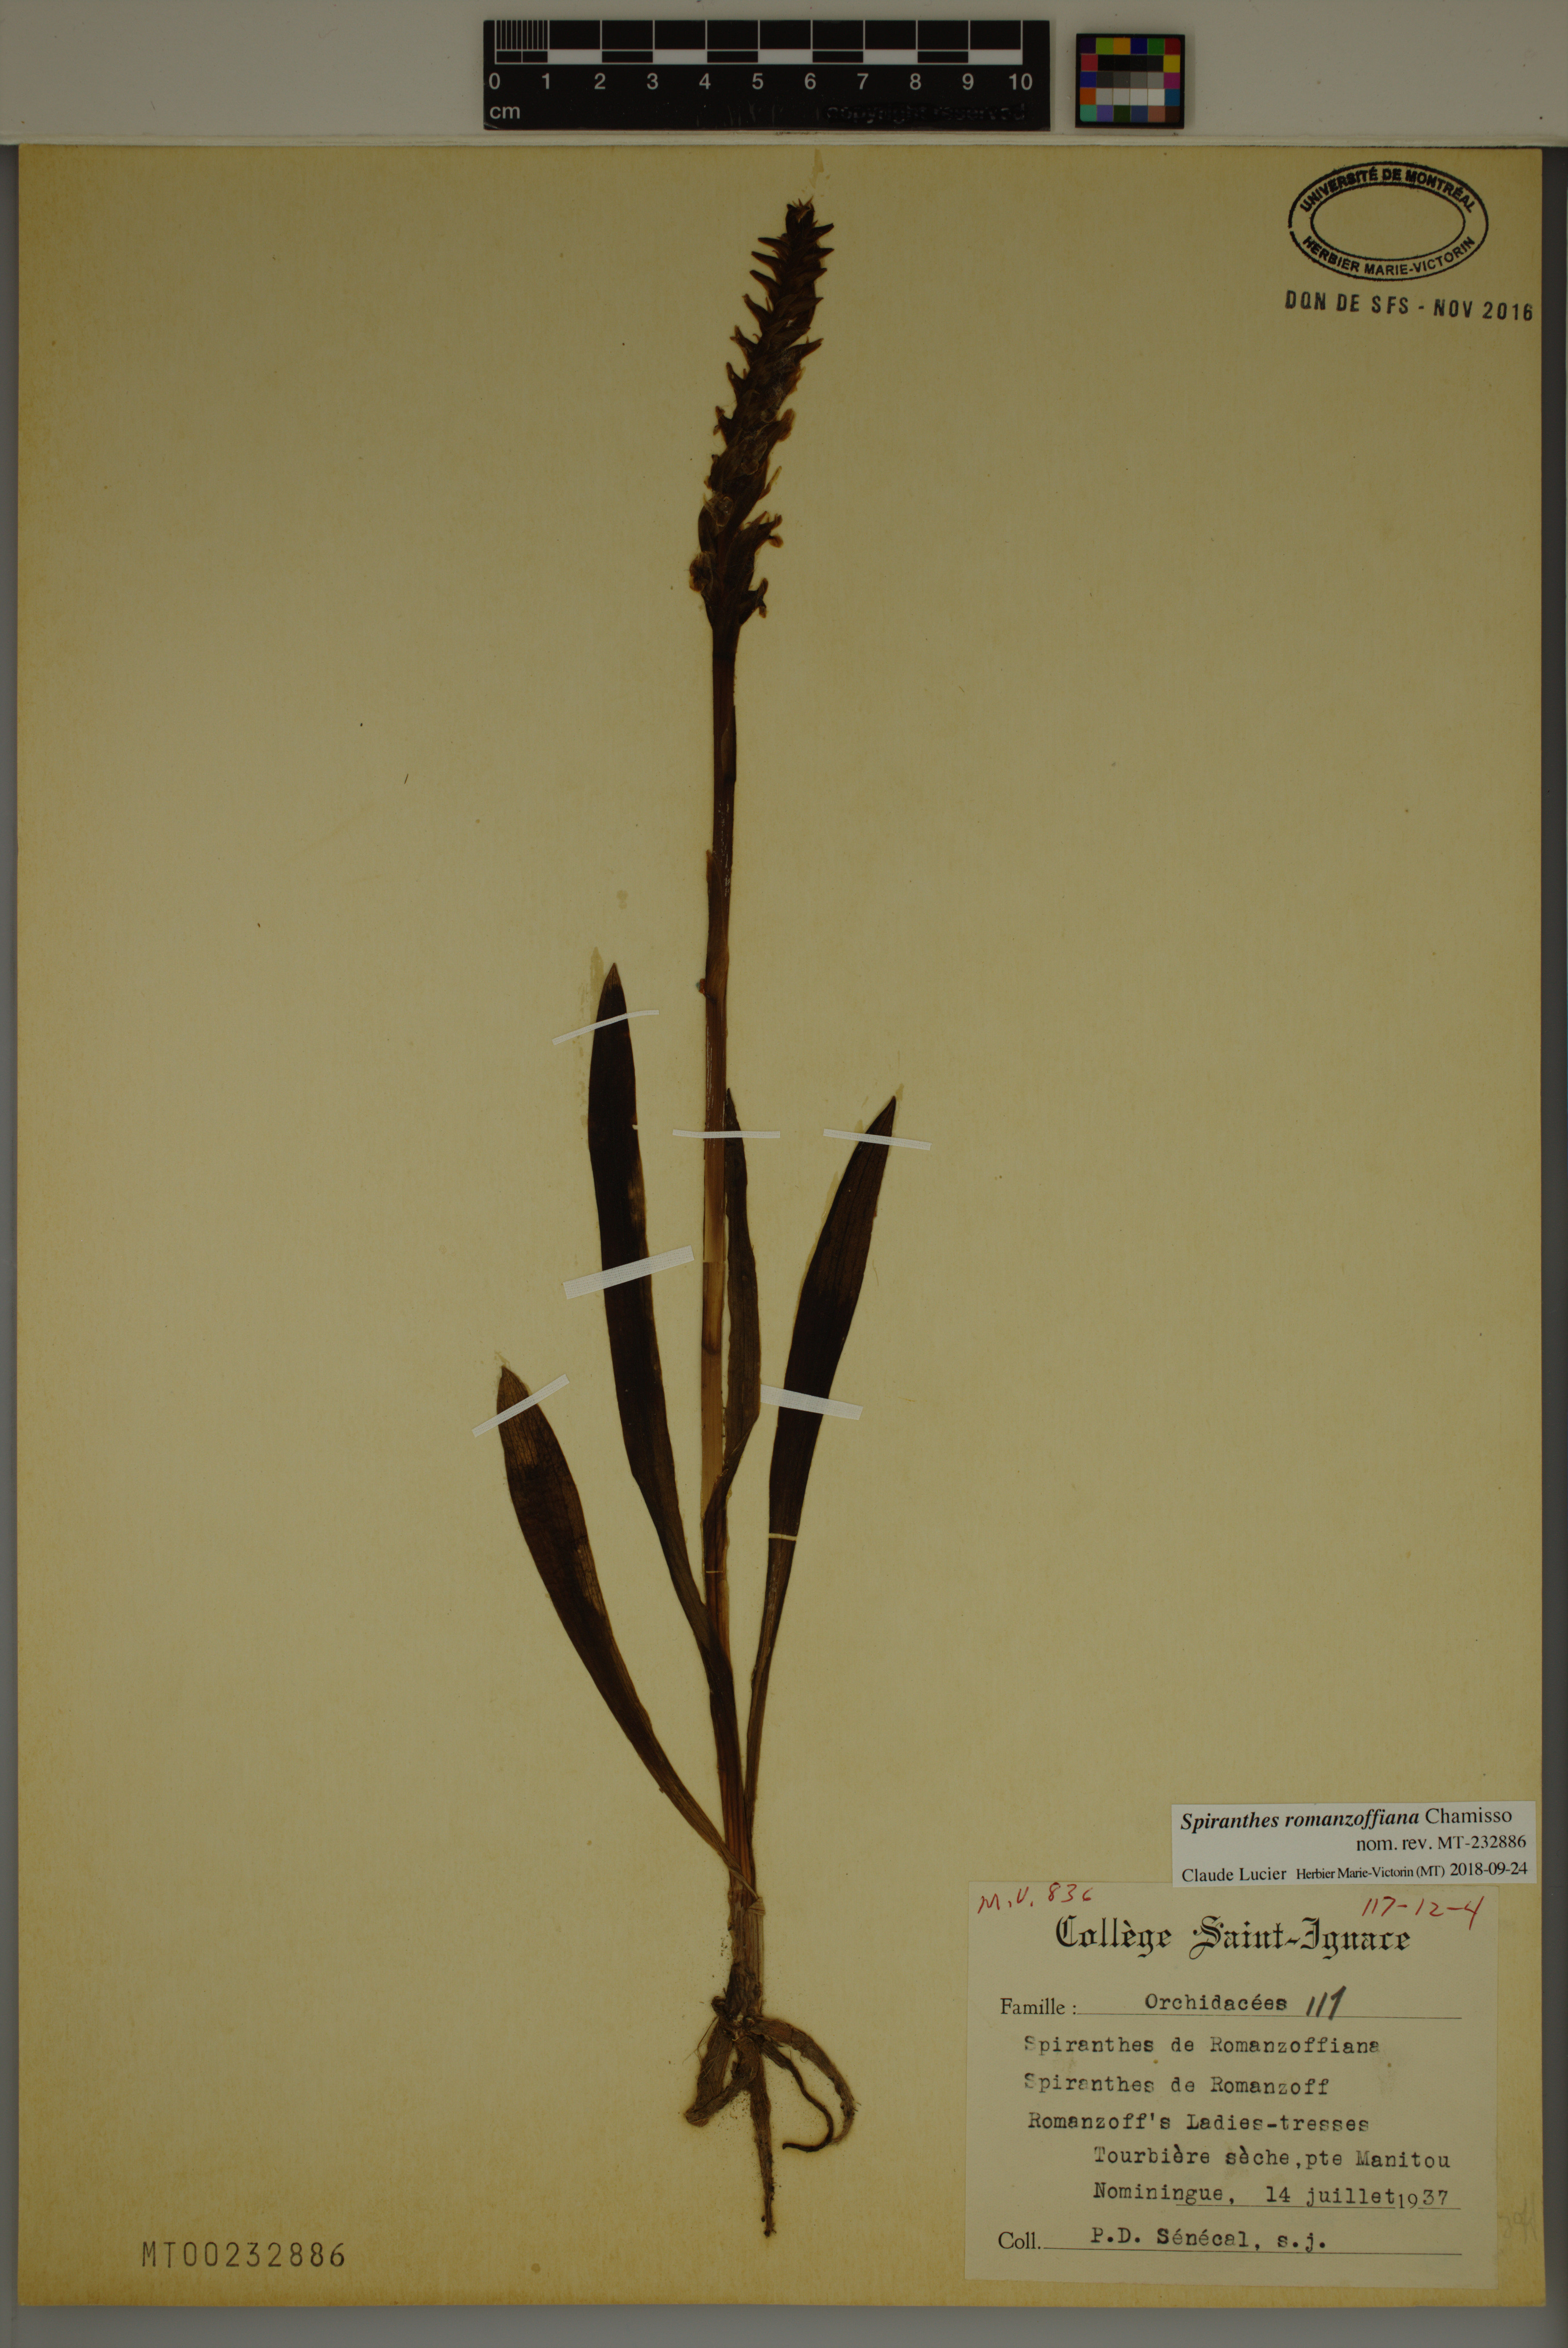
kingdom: Plantae
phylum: Tracheophyta
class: Liliopsida
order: Asparagales
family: Orchidaceae
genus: Spiranthes
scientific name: Spiranthes romanzoffiana
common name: Irish lady's-tresses
